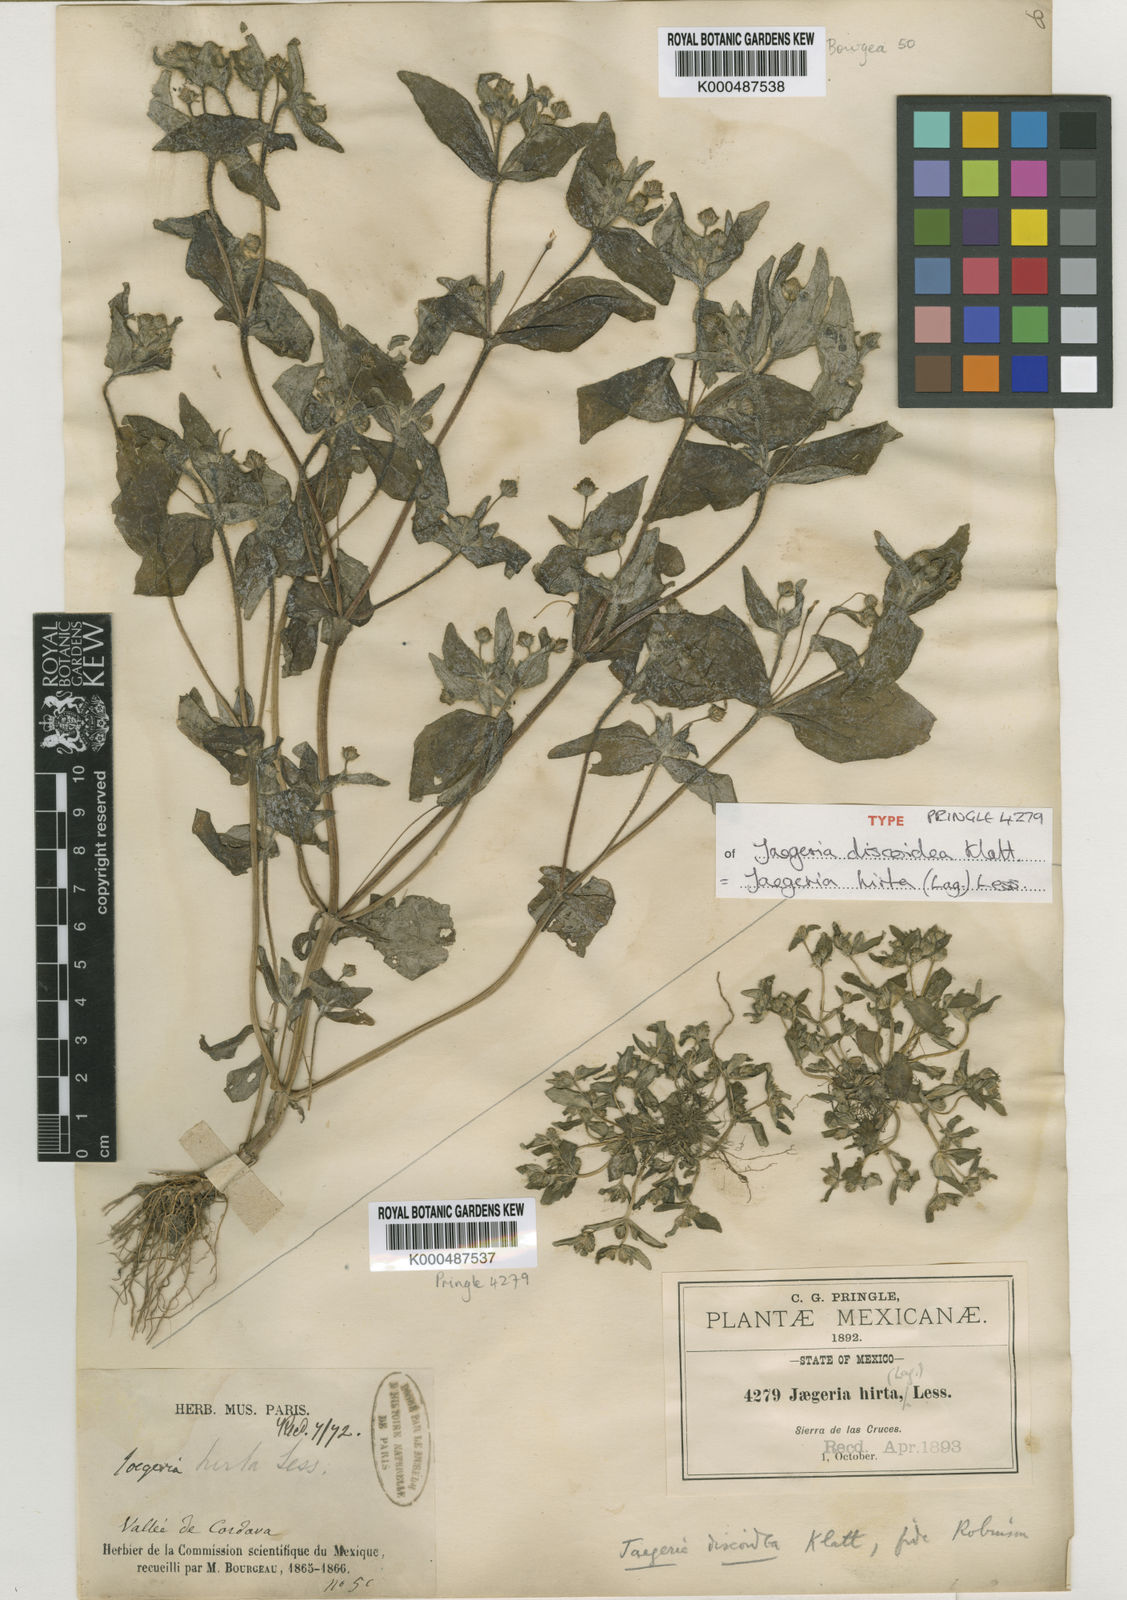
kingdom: Plantae
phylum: Tracheophyta
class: Magnoliopsida
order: Asterales
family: Asteraceae
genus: Jaegeria
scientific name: Jaegeria hirta
